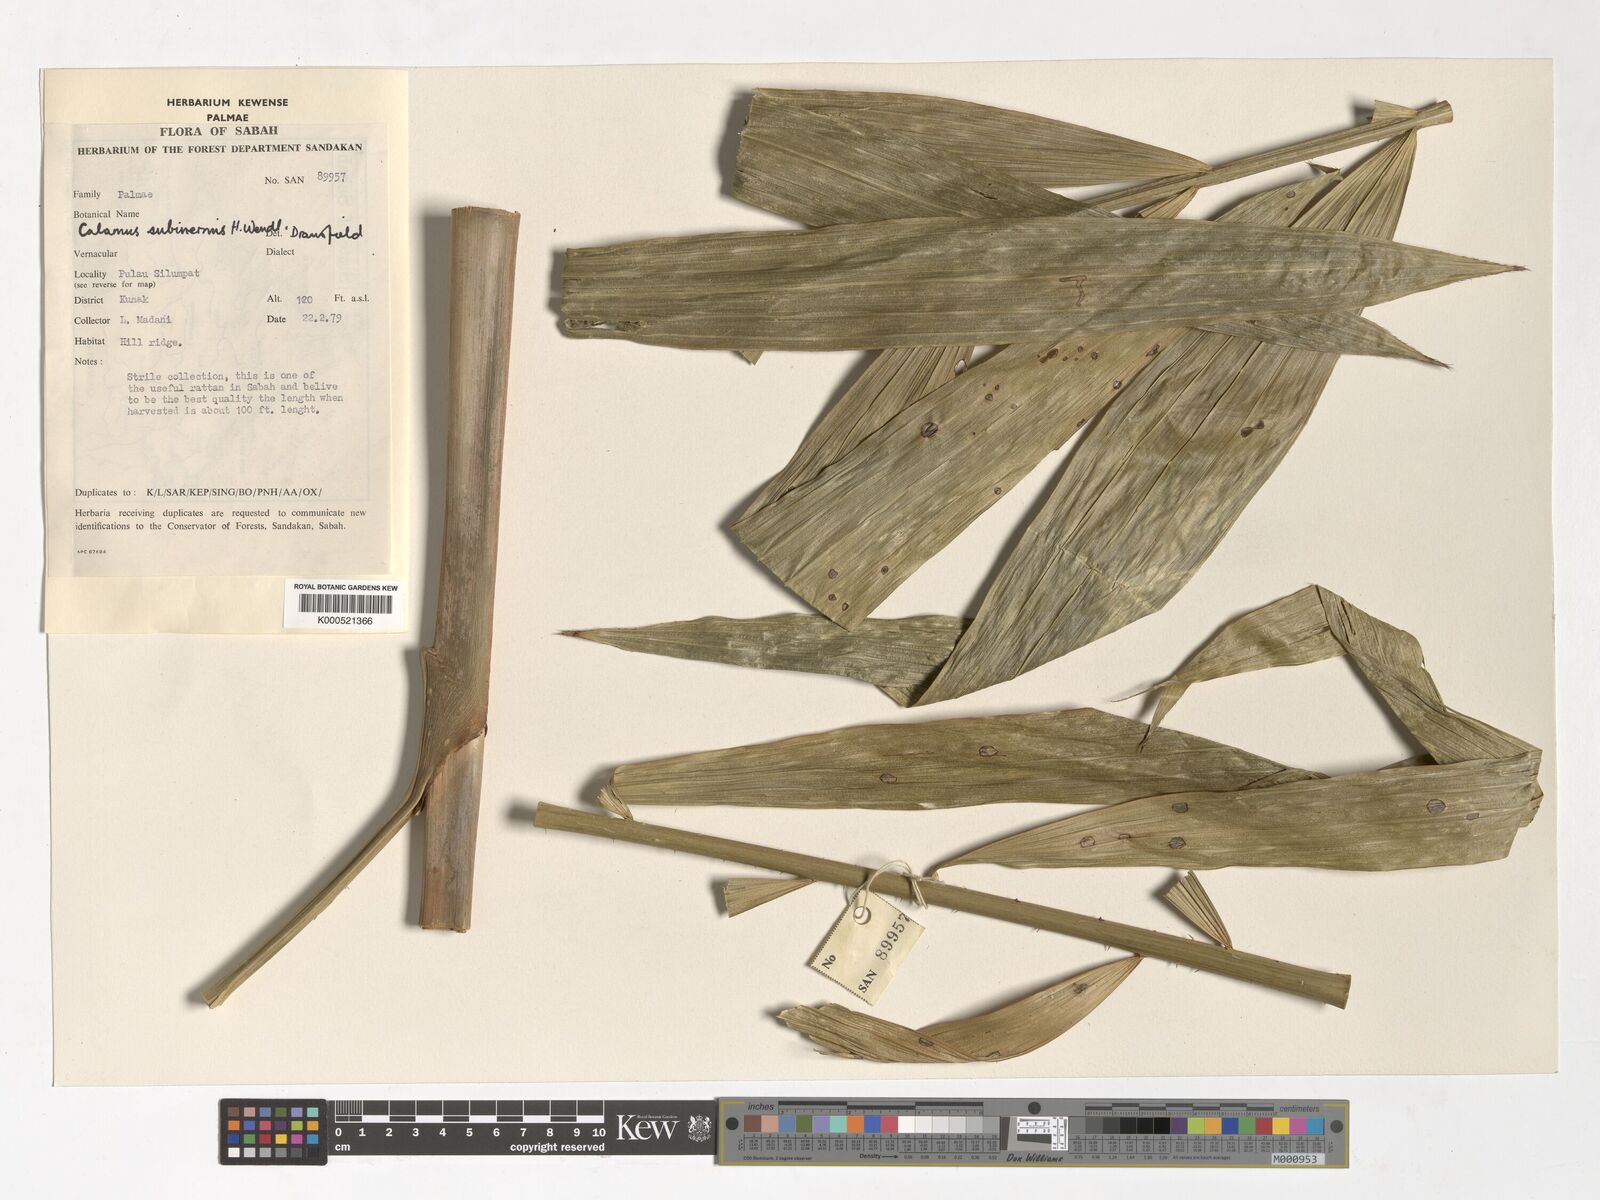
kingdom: Plantae
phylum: Tracheophyta
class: Liliopsida
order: Arecales
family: Arecaceae
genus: Calamus
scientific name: Calamus moseleyanus
